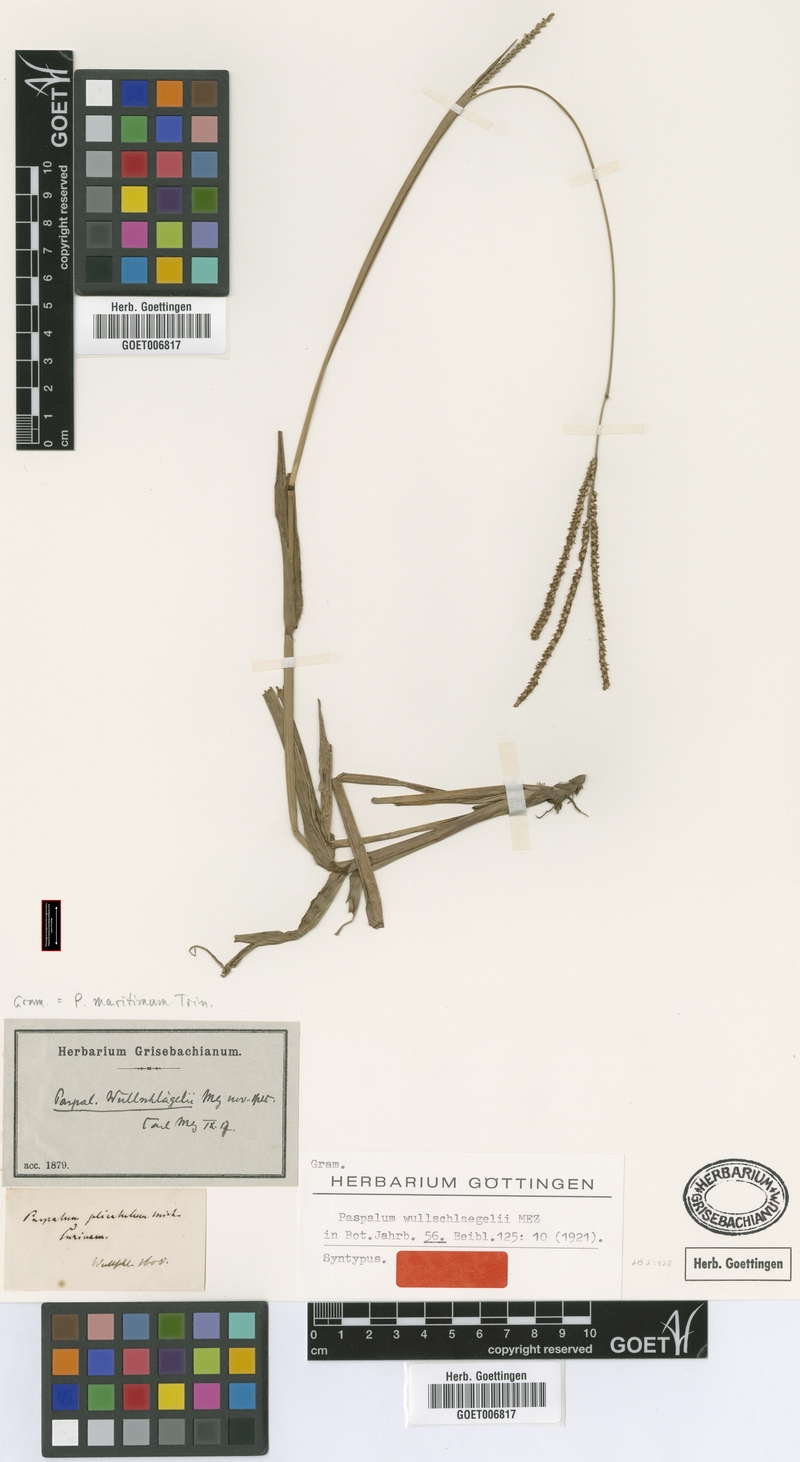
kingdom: Plantae
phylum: Tracheophyta
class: Liliopsida
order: Poales
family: Poaceae
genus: Paspalum
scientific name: Paspalum maritimum
